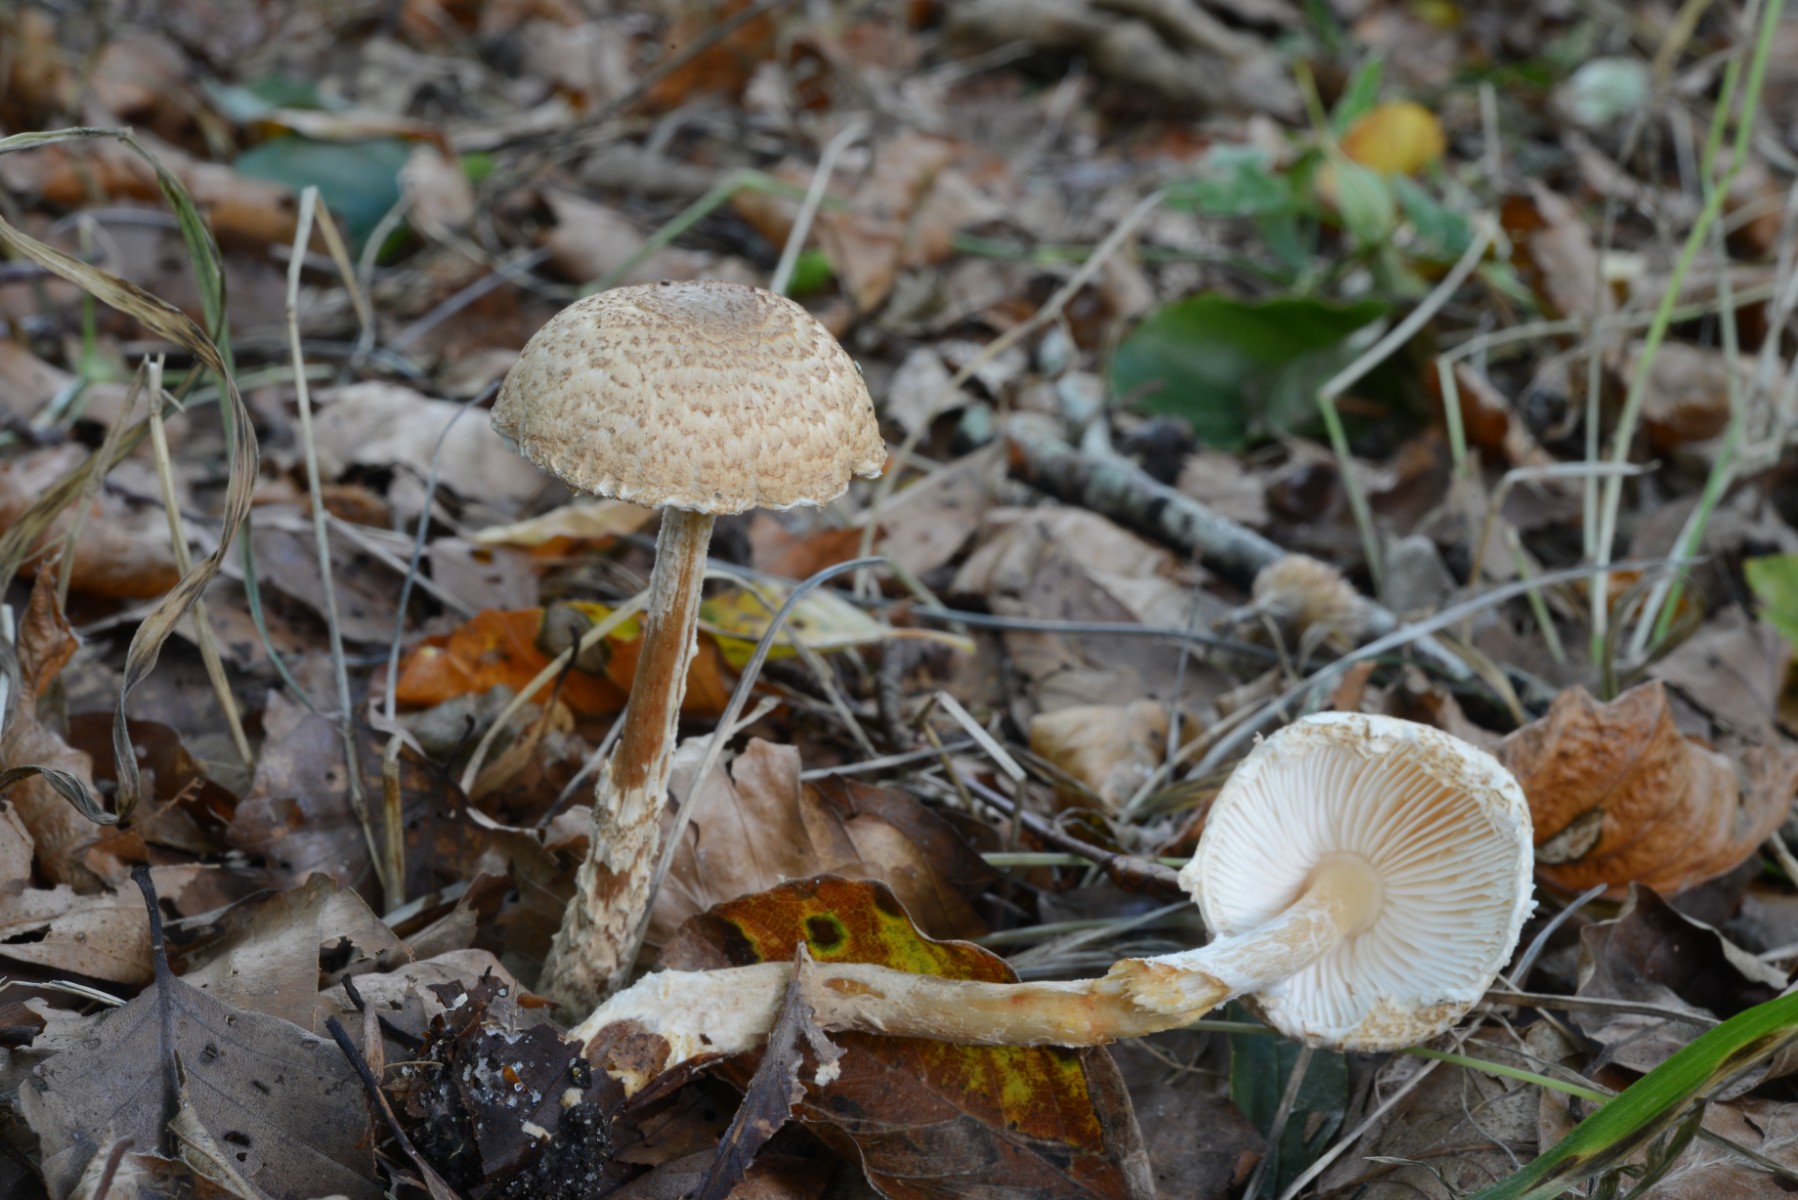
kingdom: Fungi
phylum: Basidiomycota
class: Agaricomycetes
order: Agaricales
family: Agaricaceae
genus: Lepiota
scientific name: Lepiota magnispora
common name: gulfnugget parasolhat
